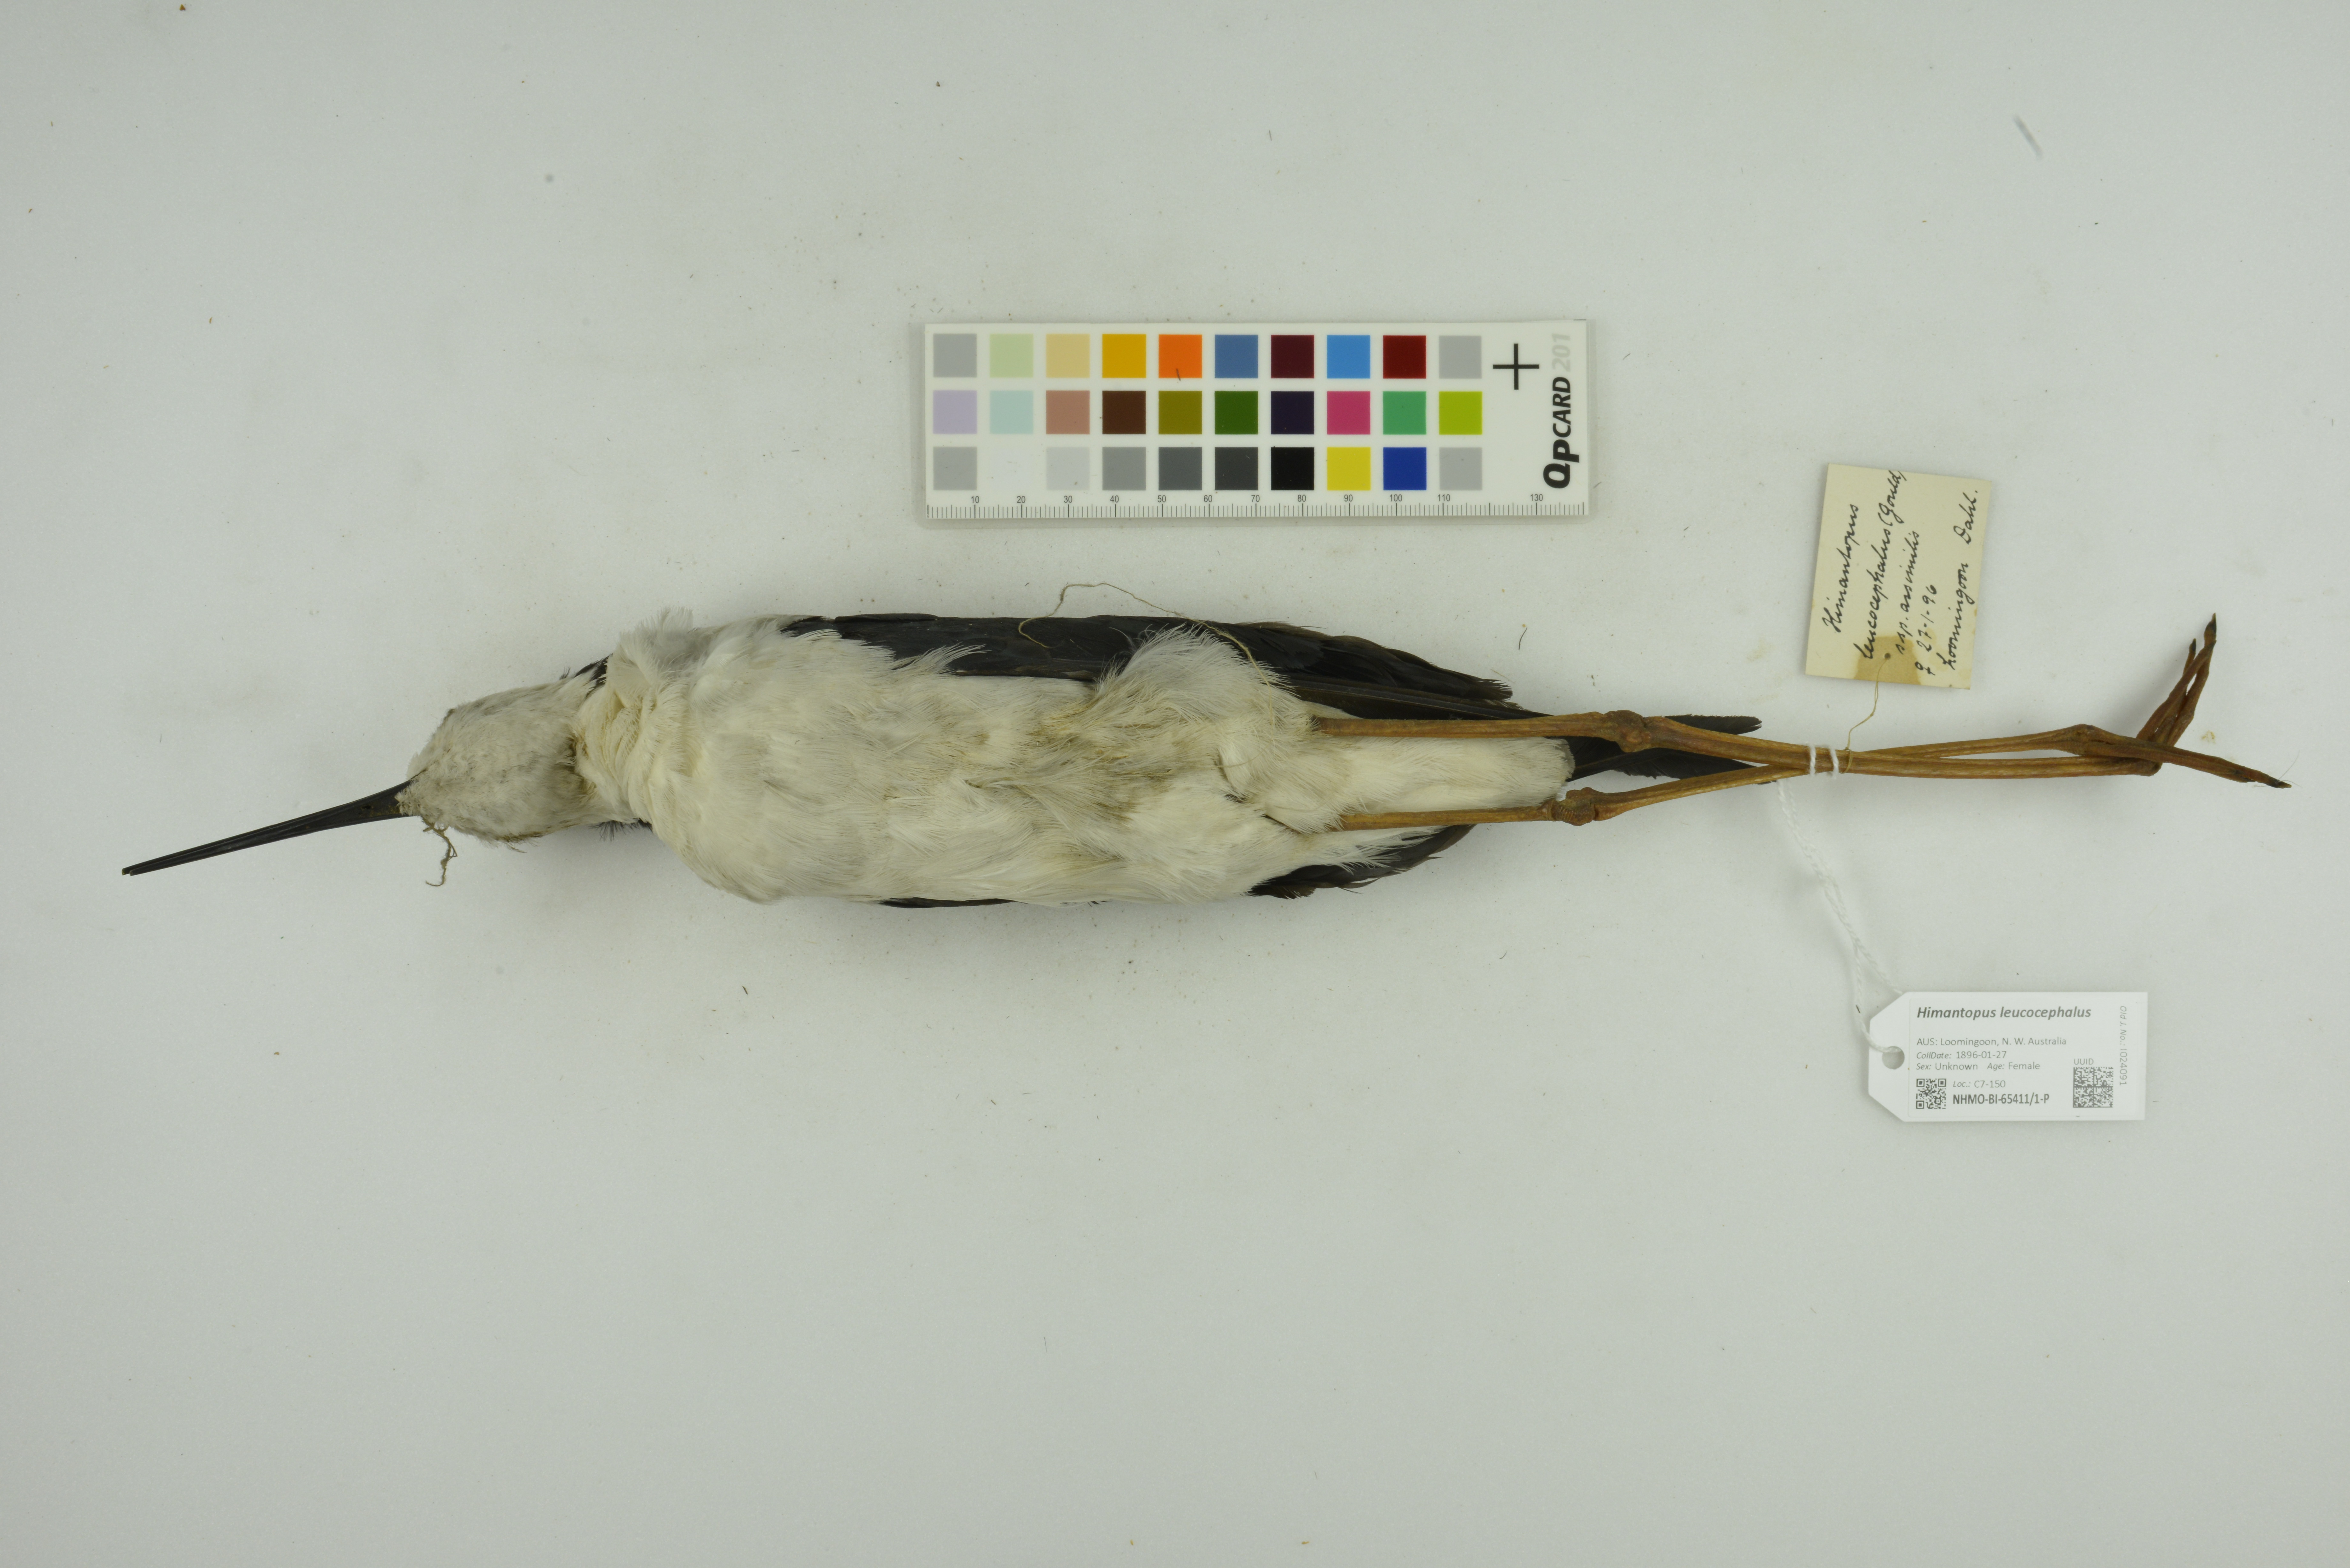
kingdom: Animalia
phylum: Chordata
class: Aves
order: Charadriiformes
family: Recurvirostridae
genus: Himantopus
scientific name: Himantopus leucocephalus
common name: White-headed stilt
